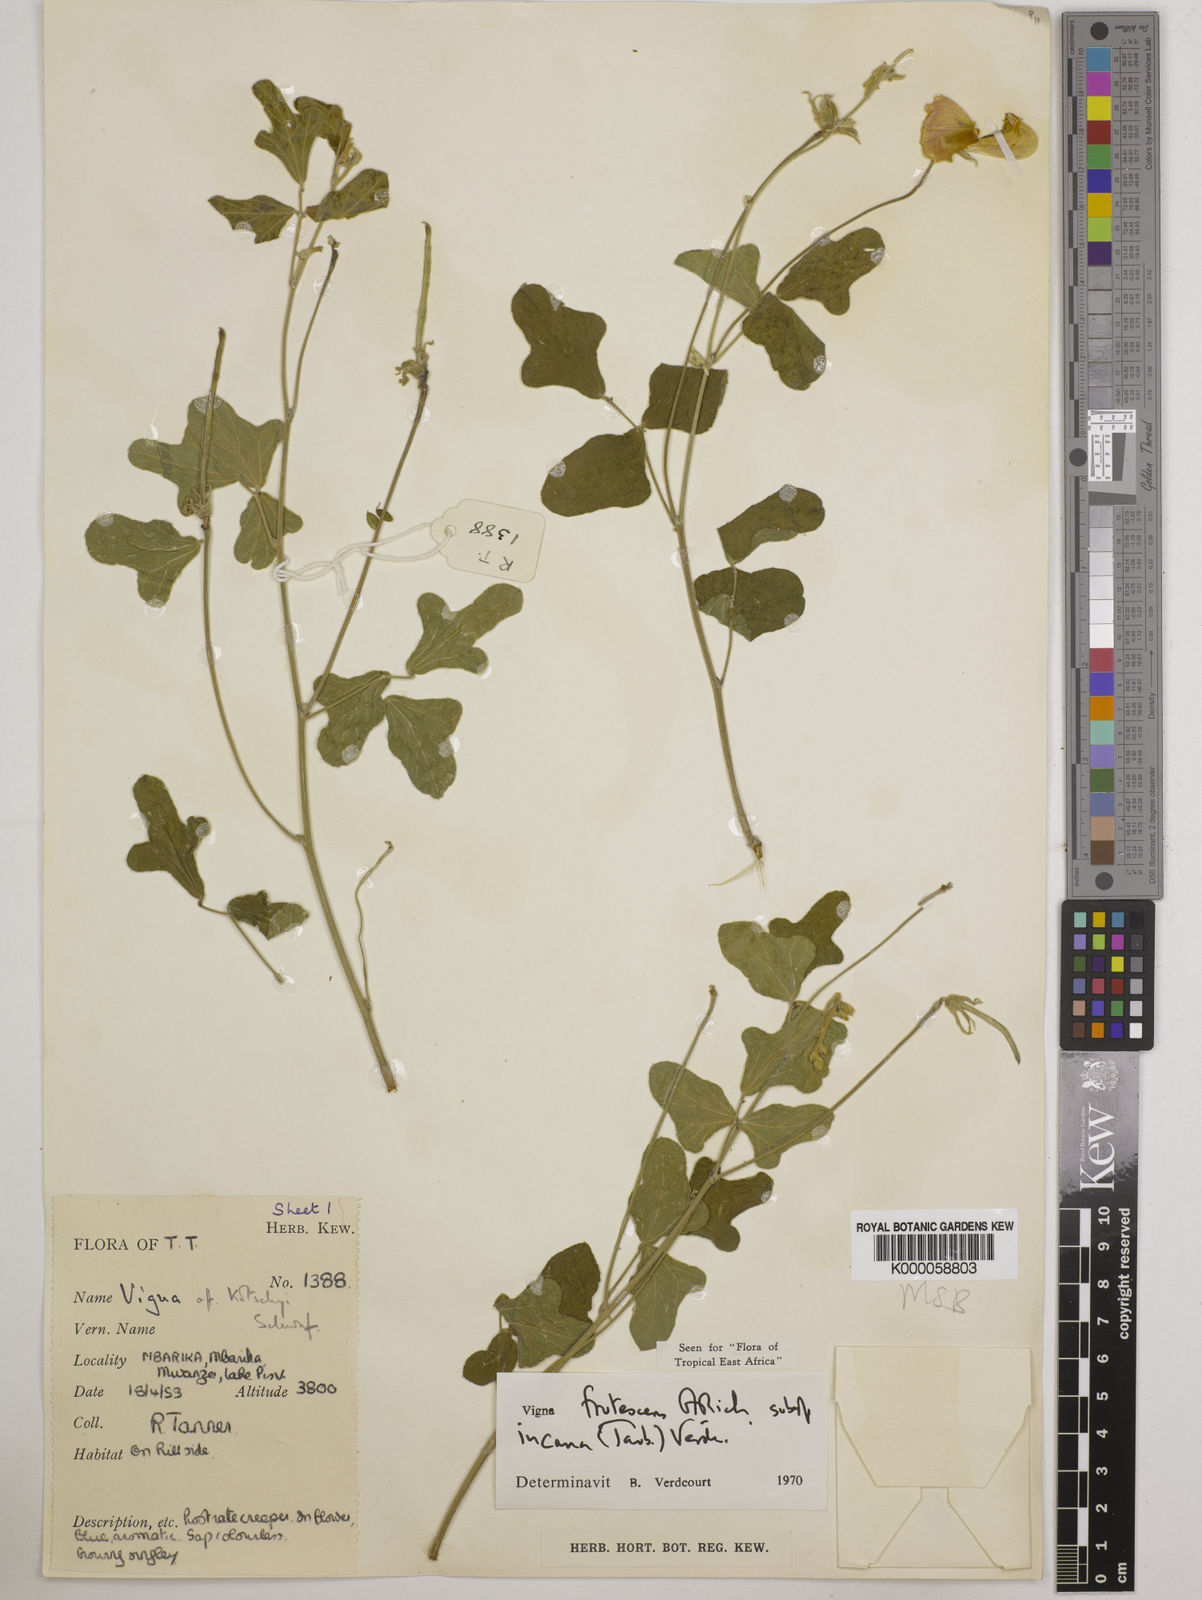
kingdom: Plantae
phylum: Tracheophyta
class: Magnoliopsida
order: Fabales
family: Fabaceae
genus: Vigna
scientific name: Vigna
